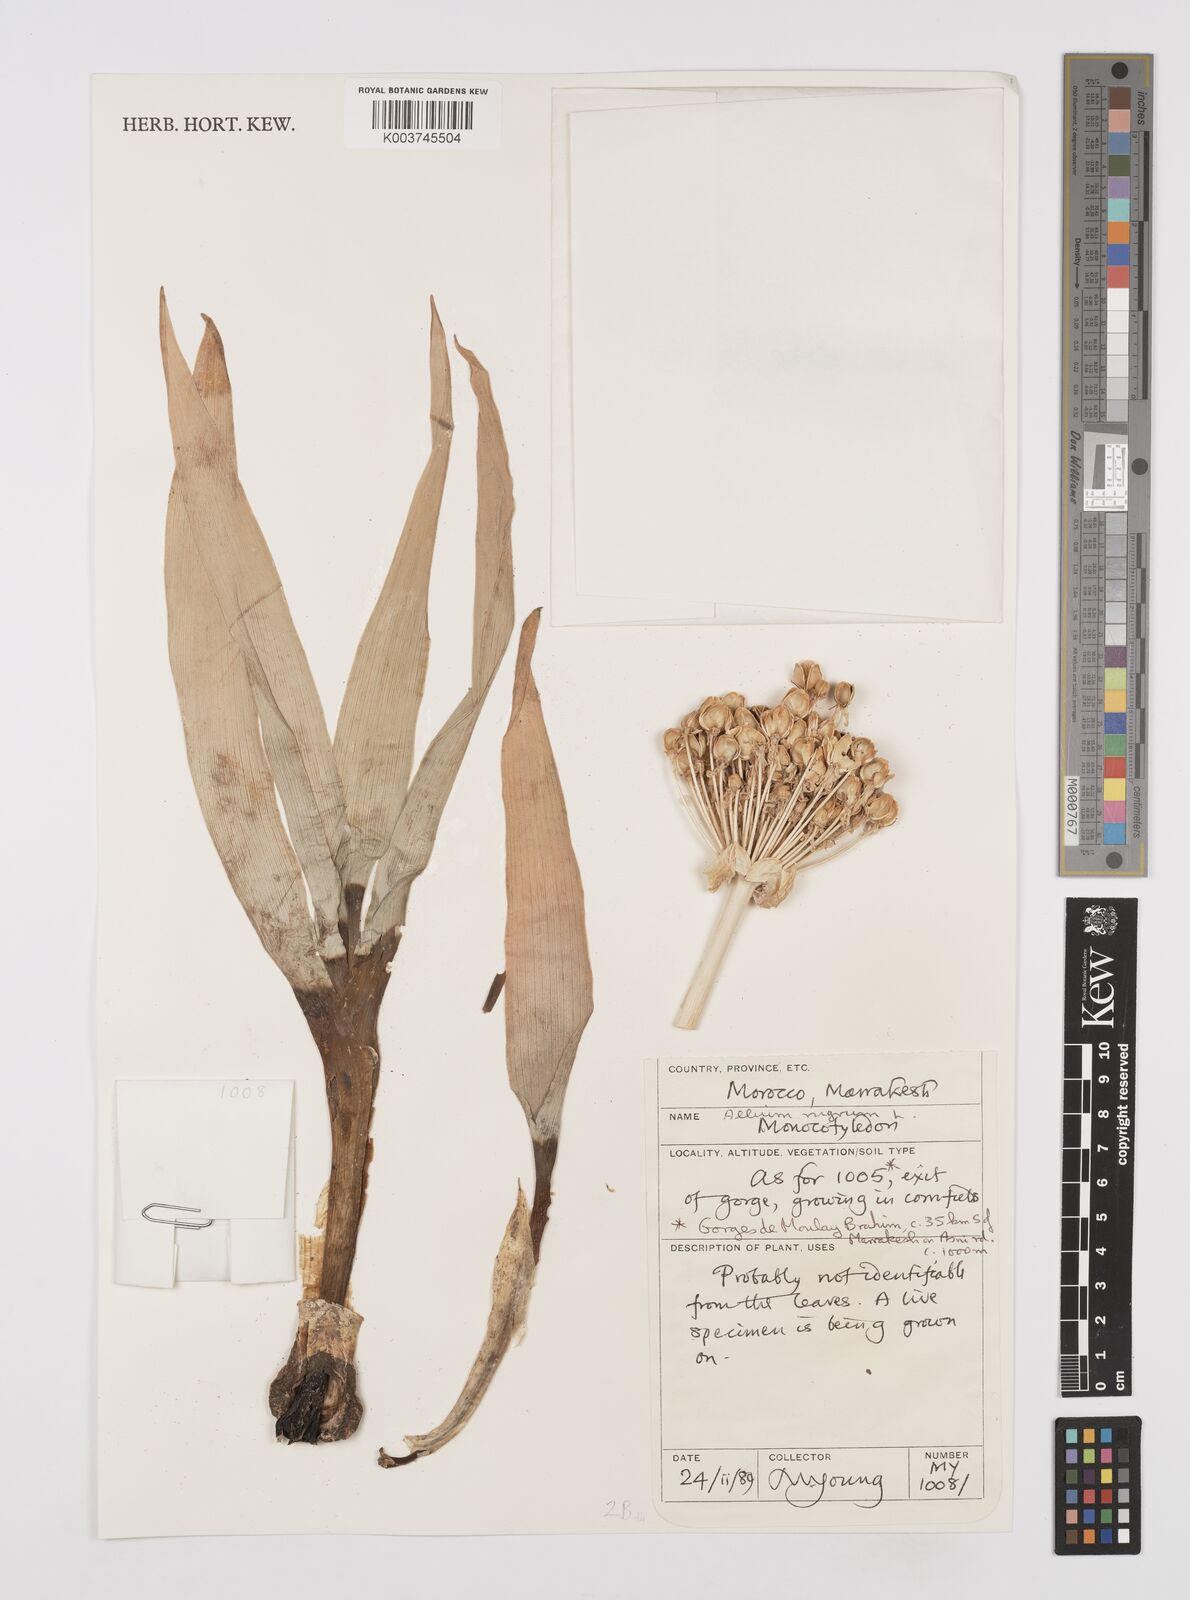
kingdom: Plantae
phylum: Tracheophyta
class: Liliopsida
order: Asparagales
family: Amaryllidaceae
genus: Allium
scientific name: Allium nigrum
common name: Black garlic
